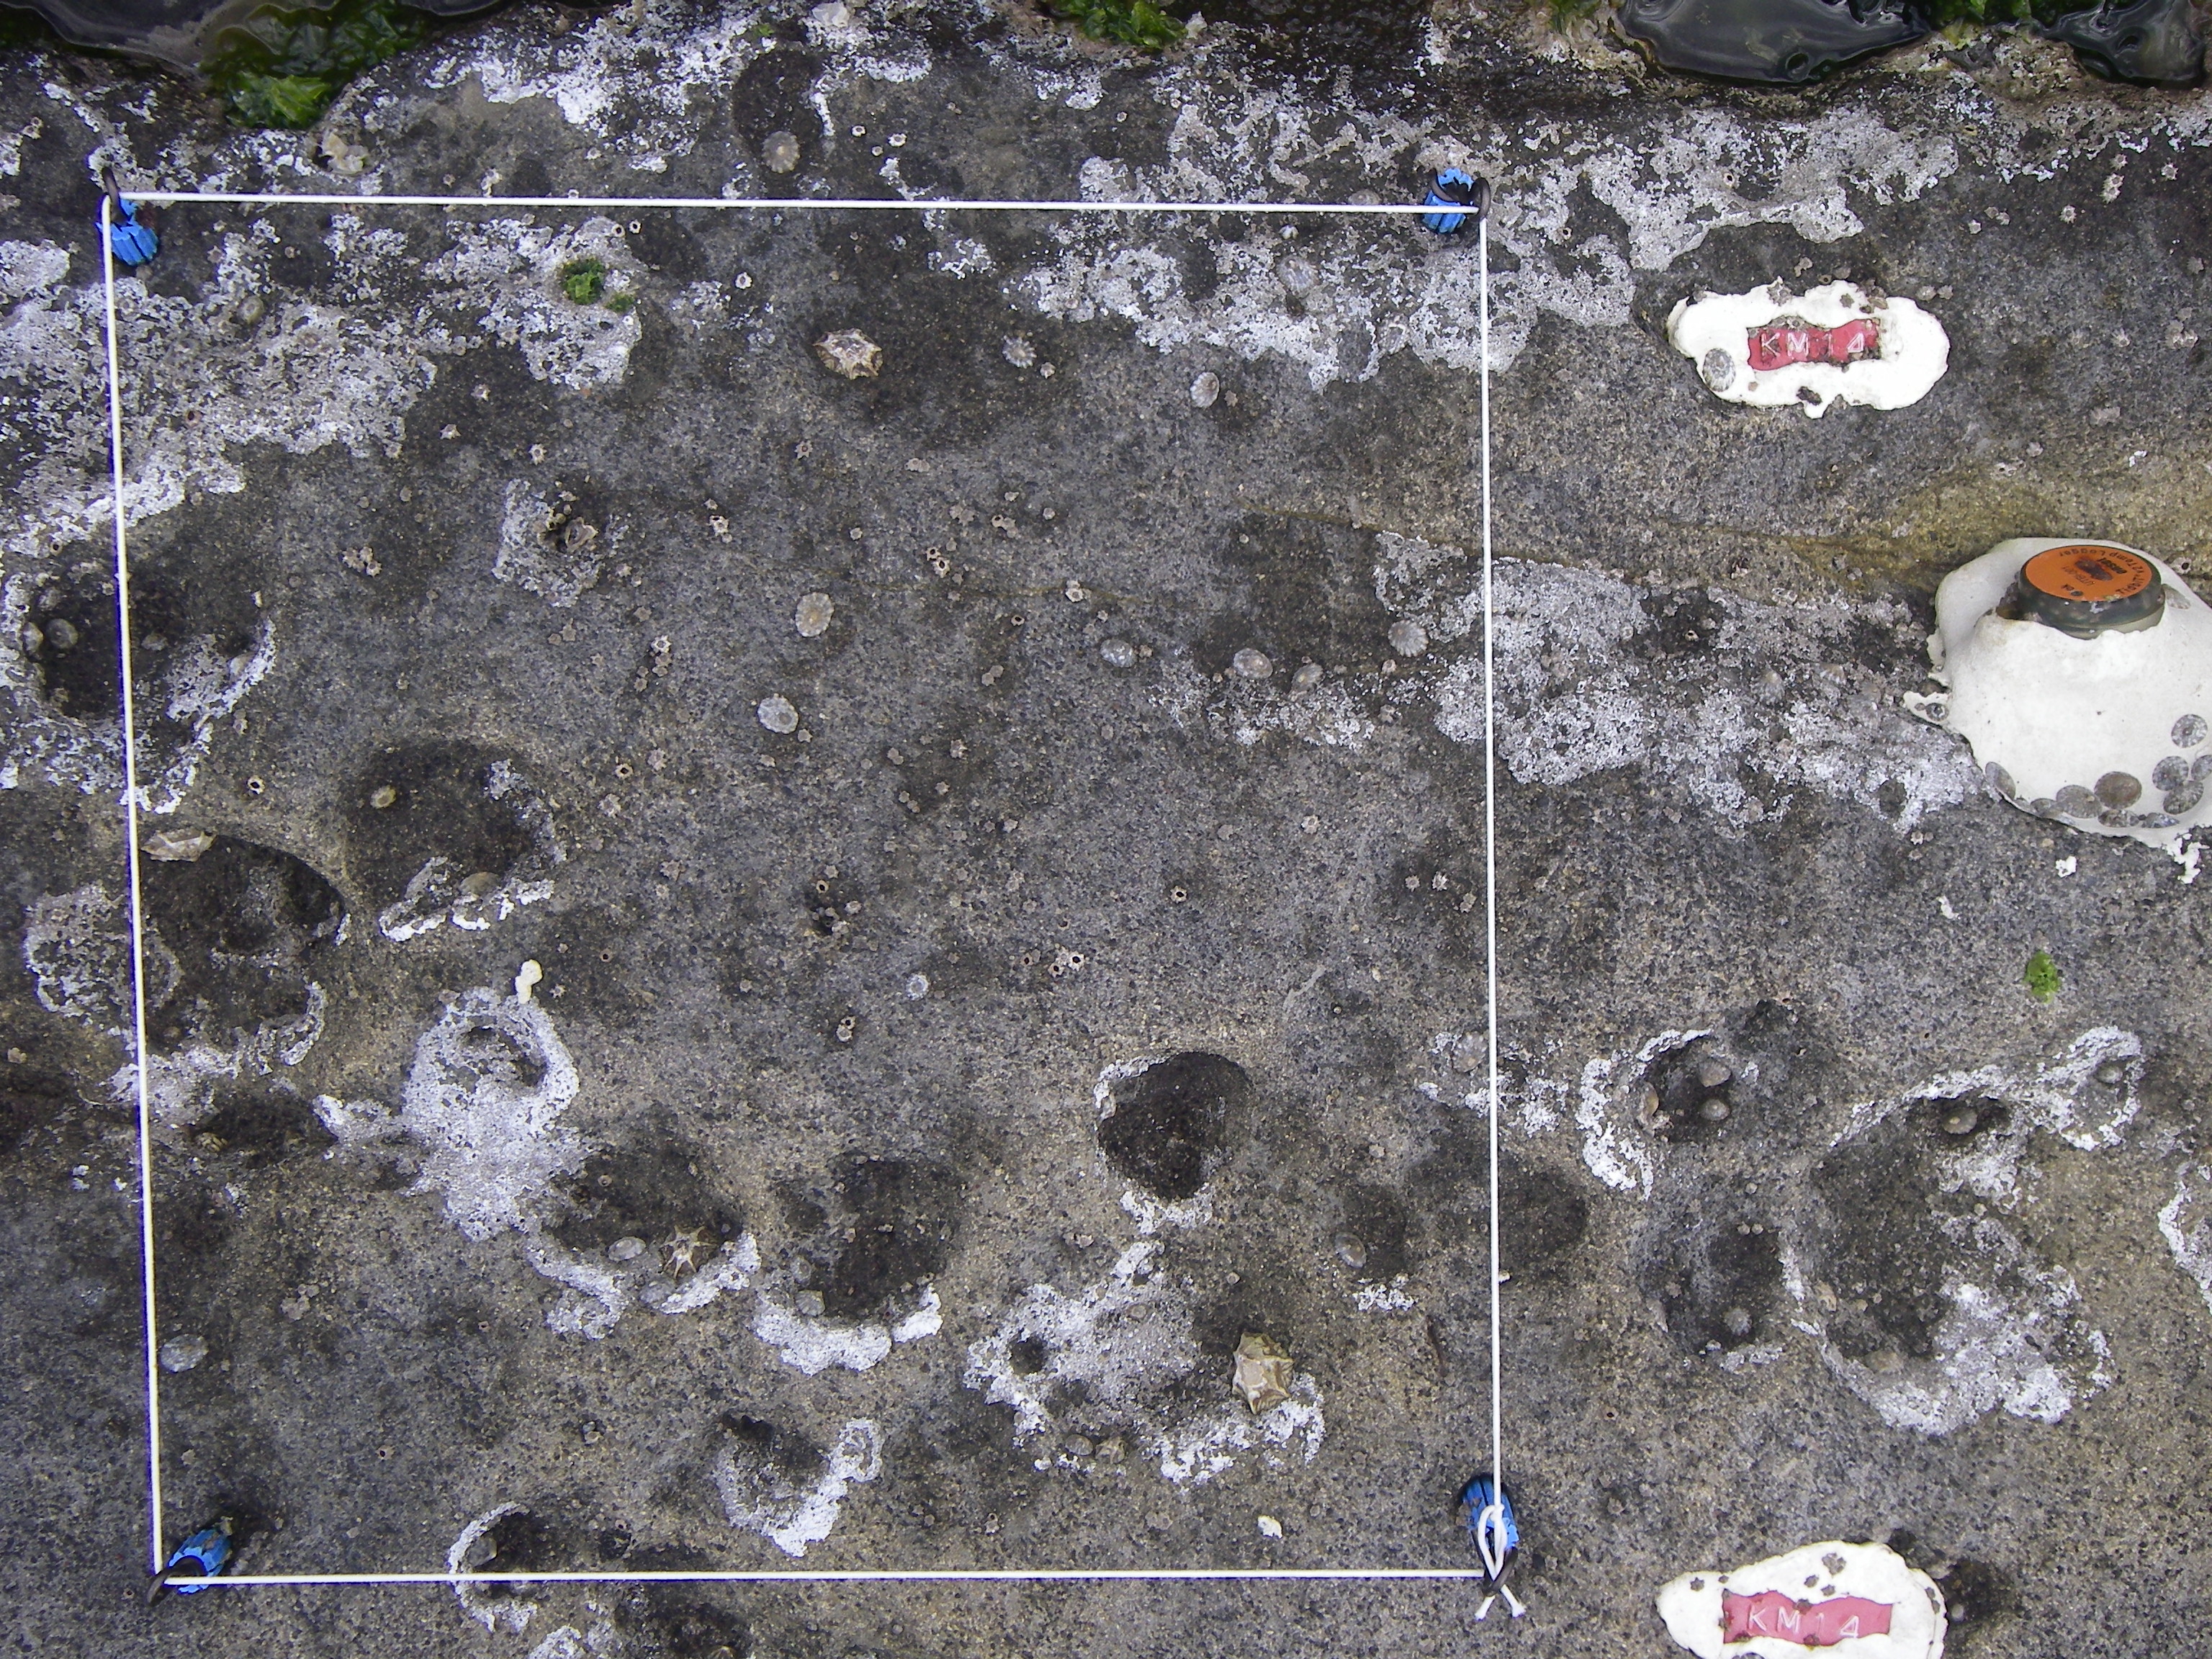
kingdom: Animalia
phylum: Arthropoda
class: Maxillopoda
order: Sessilia
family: Chthamalidae
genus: Chthamalus
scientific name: Chthamalus challengeri
